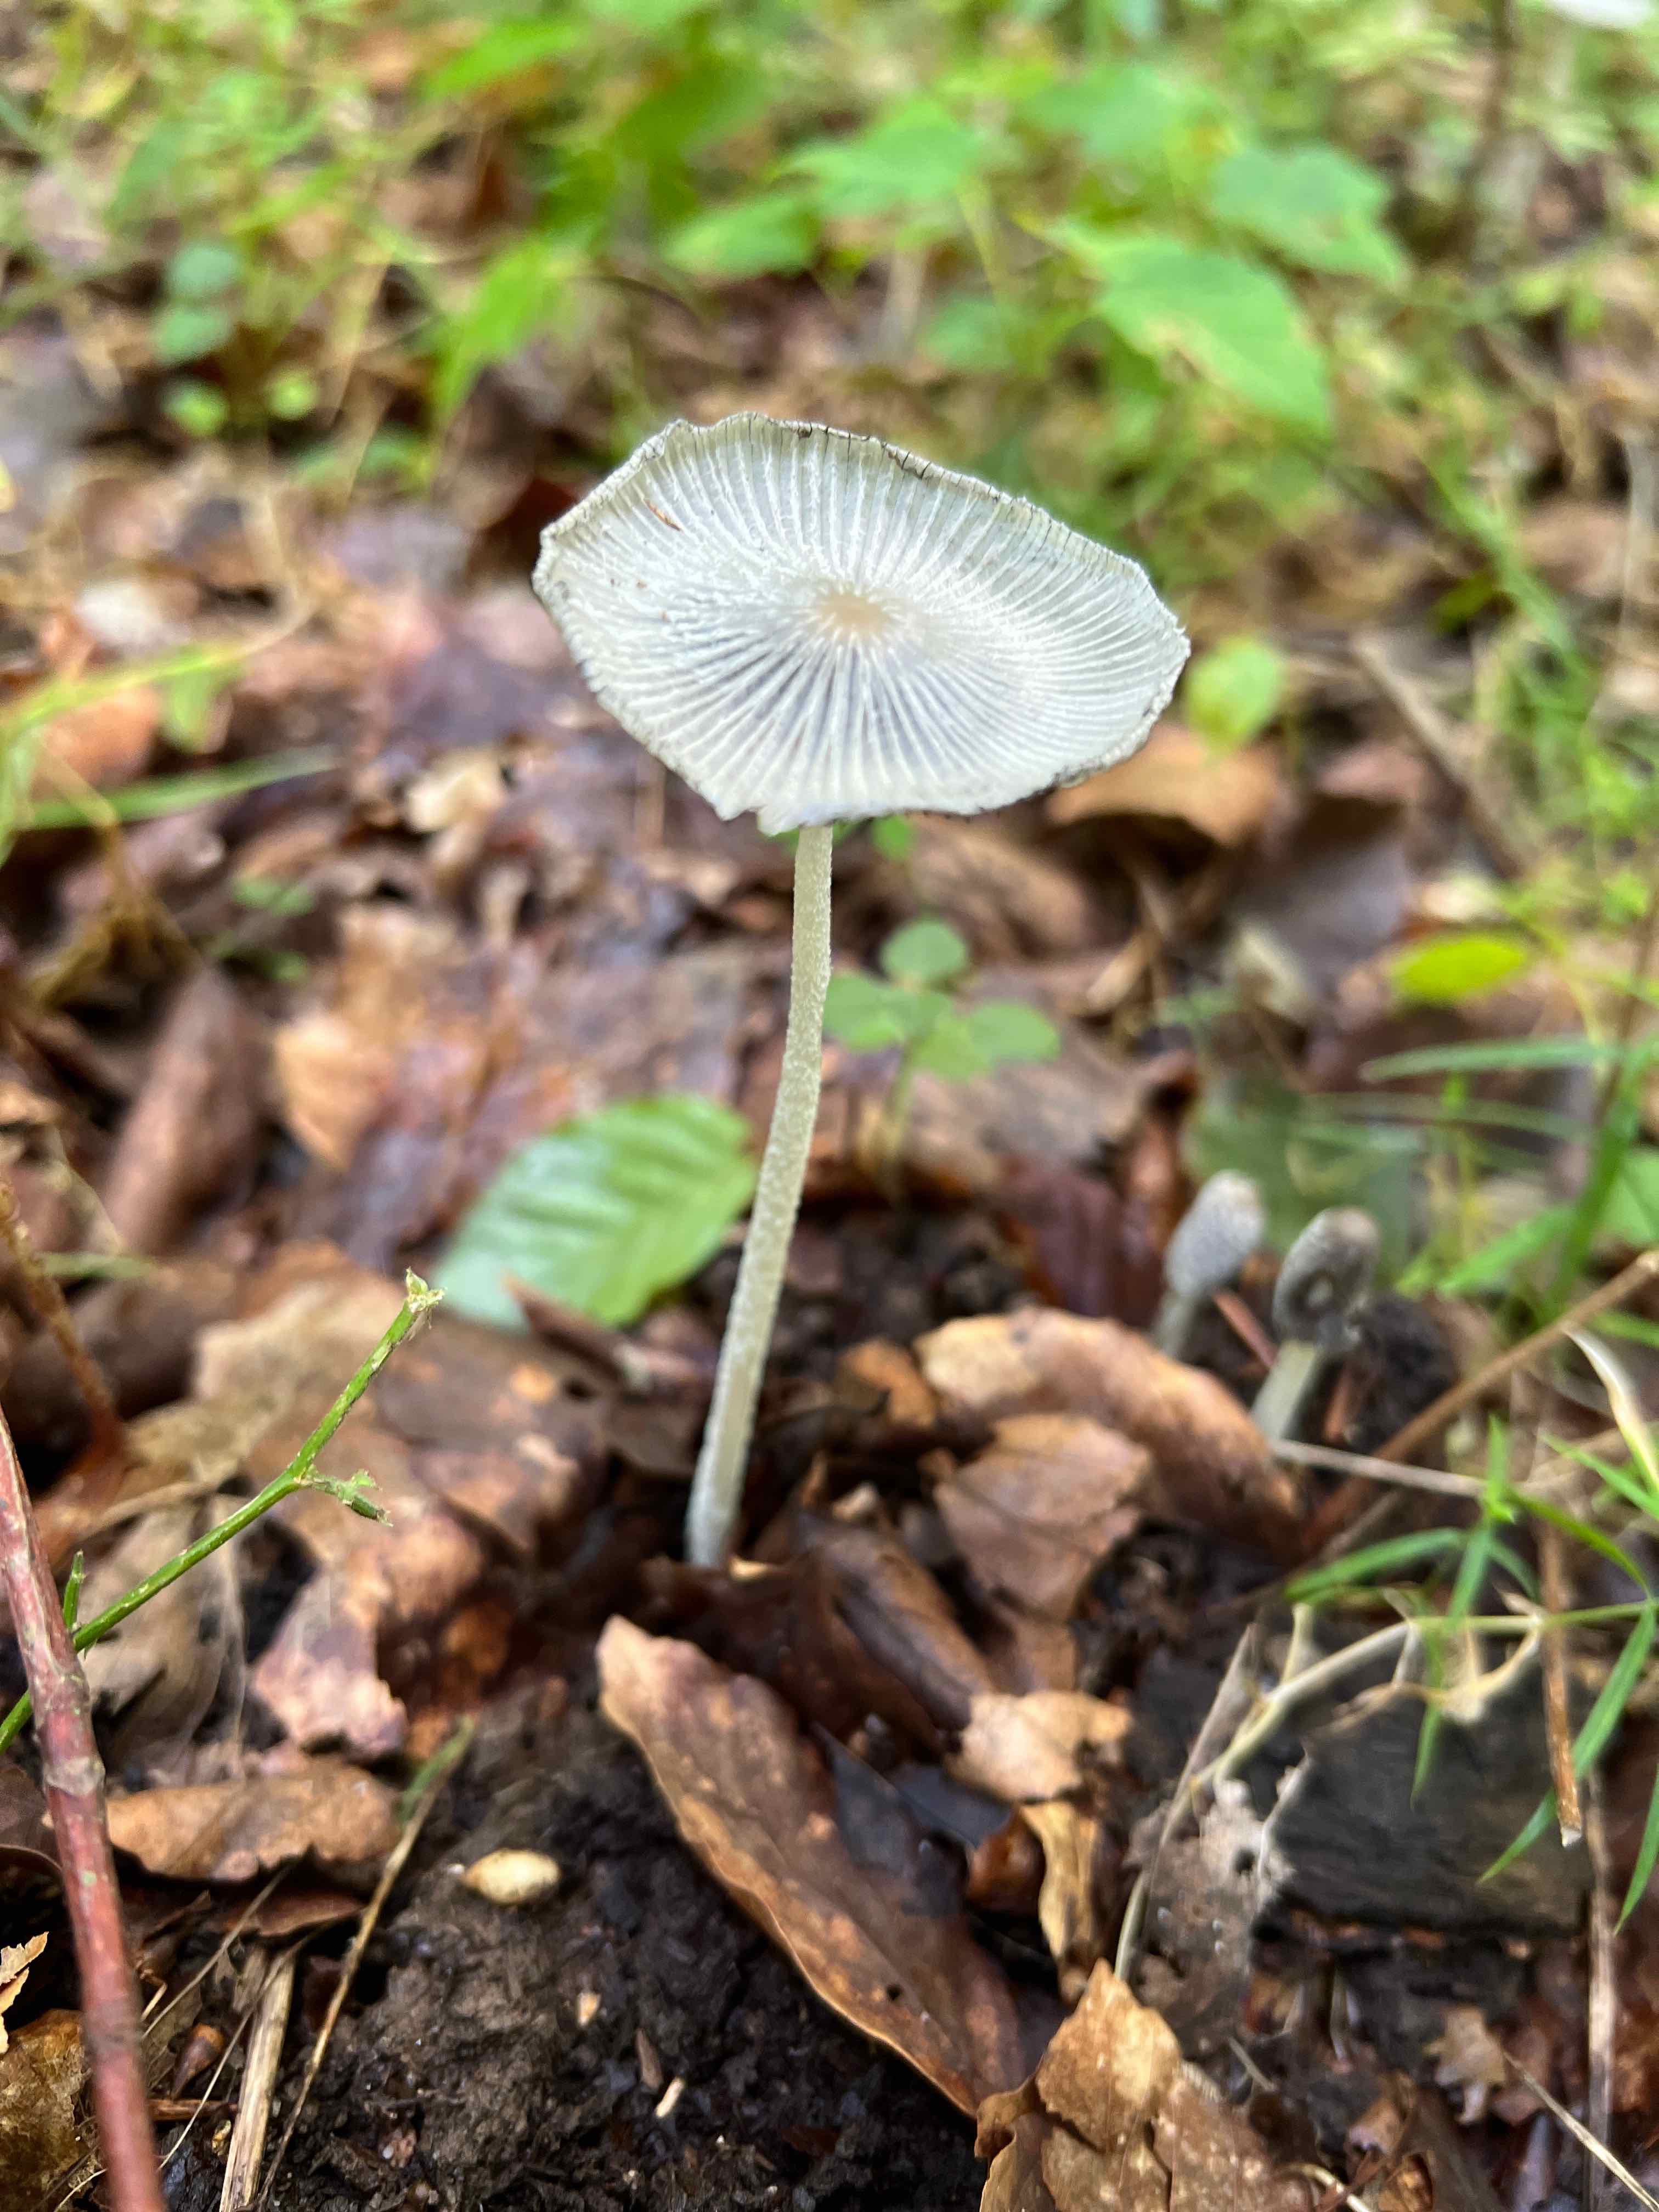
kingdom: Fungi
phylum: Basidiomycota
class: Agaricomycetes
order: Agaricales
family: Psathyrellaceae
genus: Coprinopsis
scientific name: Coprinopsis lagopus
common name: dunstokket blækhat
